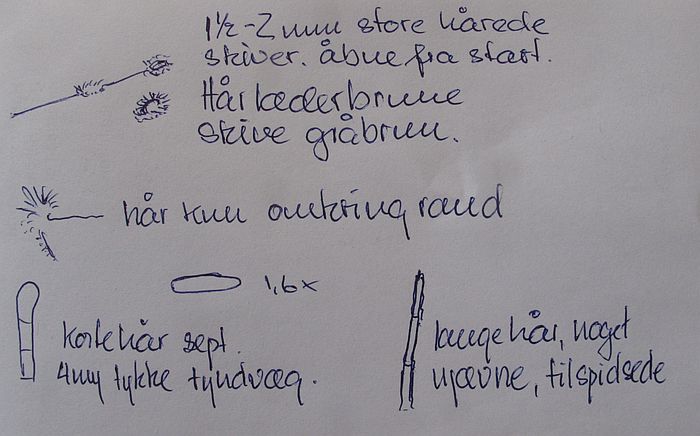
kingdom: Fungi
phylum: Ascomycota
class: Leotiomycetes
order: Helotiales
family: Lachnaceae
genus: Lachnum
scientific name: Lachnum mollissimum
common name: smuk frynseskive
